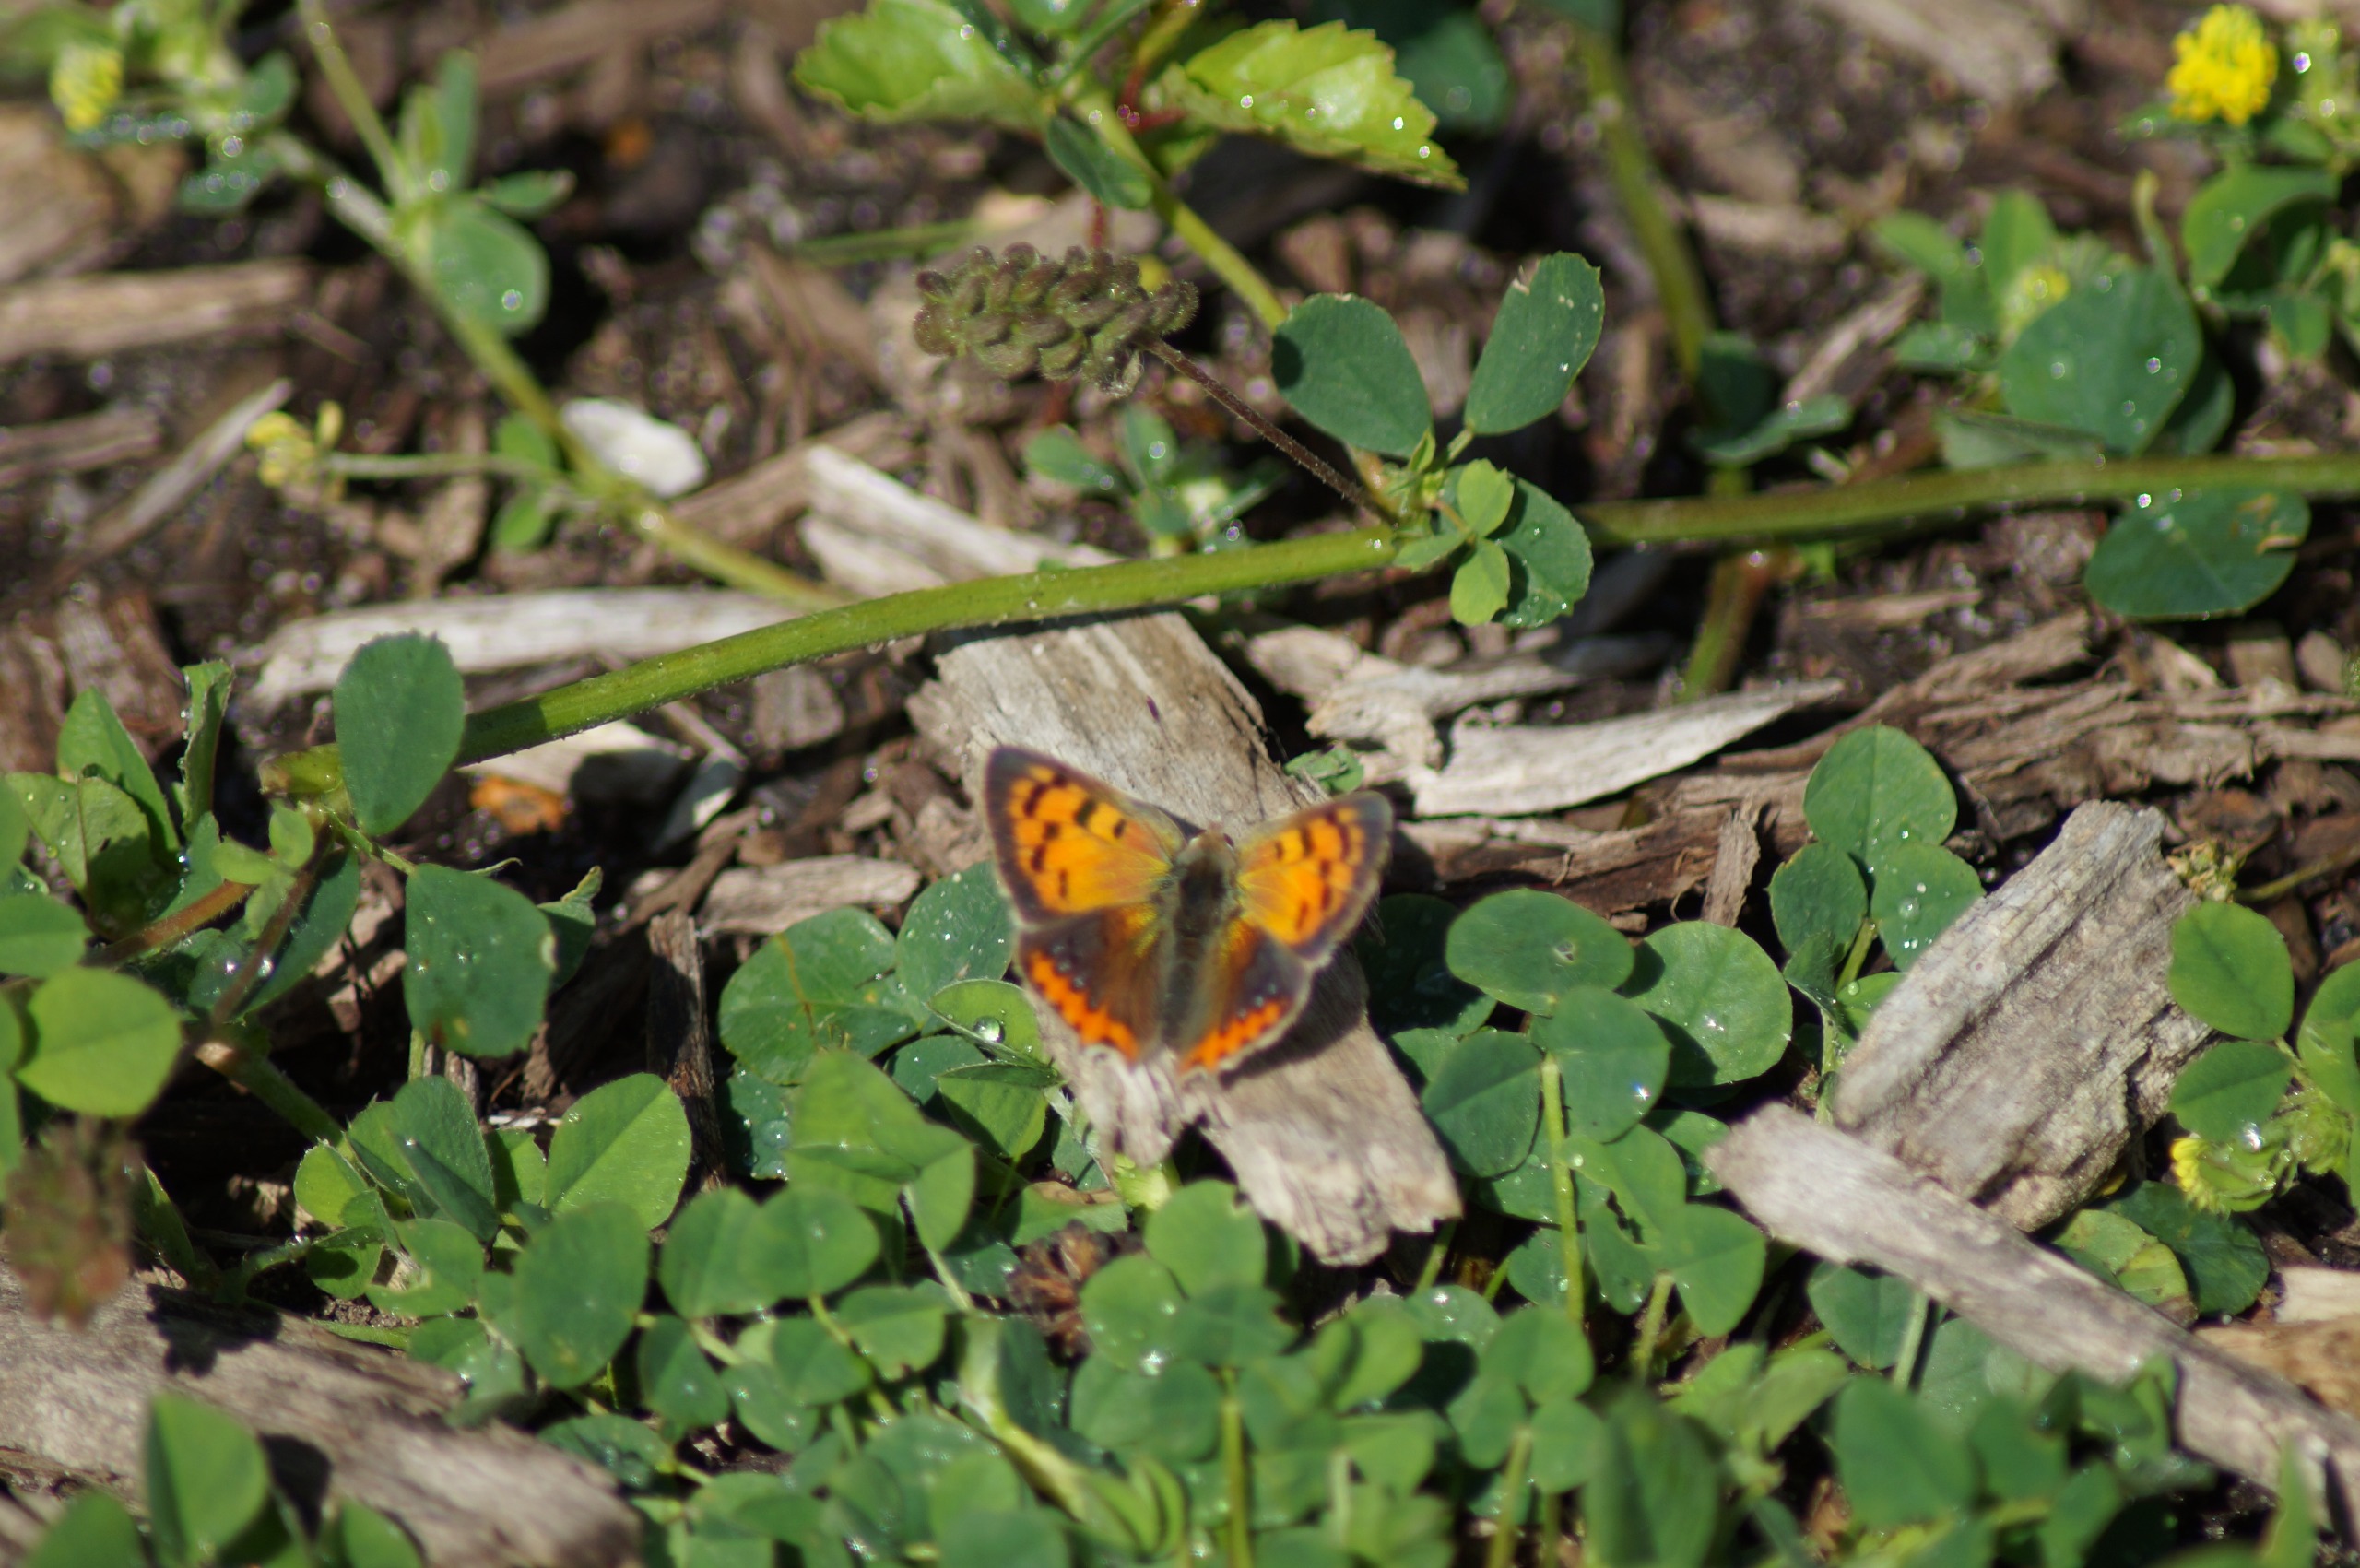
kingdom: Animalia
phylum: Arthropoda
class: Insecta
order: Lepidoptera
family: Lycaenidae
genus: Lycaena
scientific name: Lycaena phlaeas
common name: Lille ildfugl
